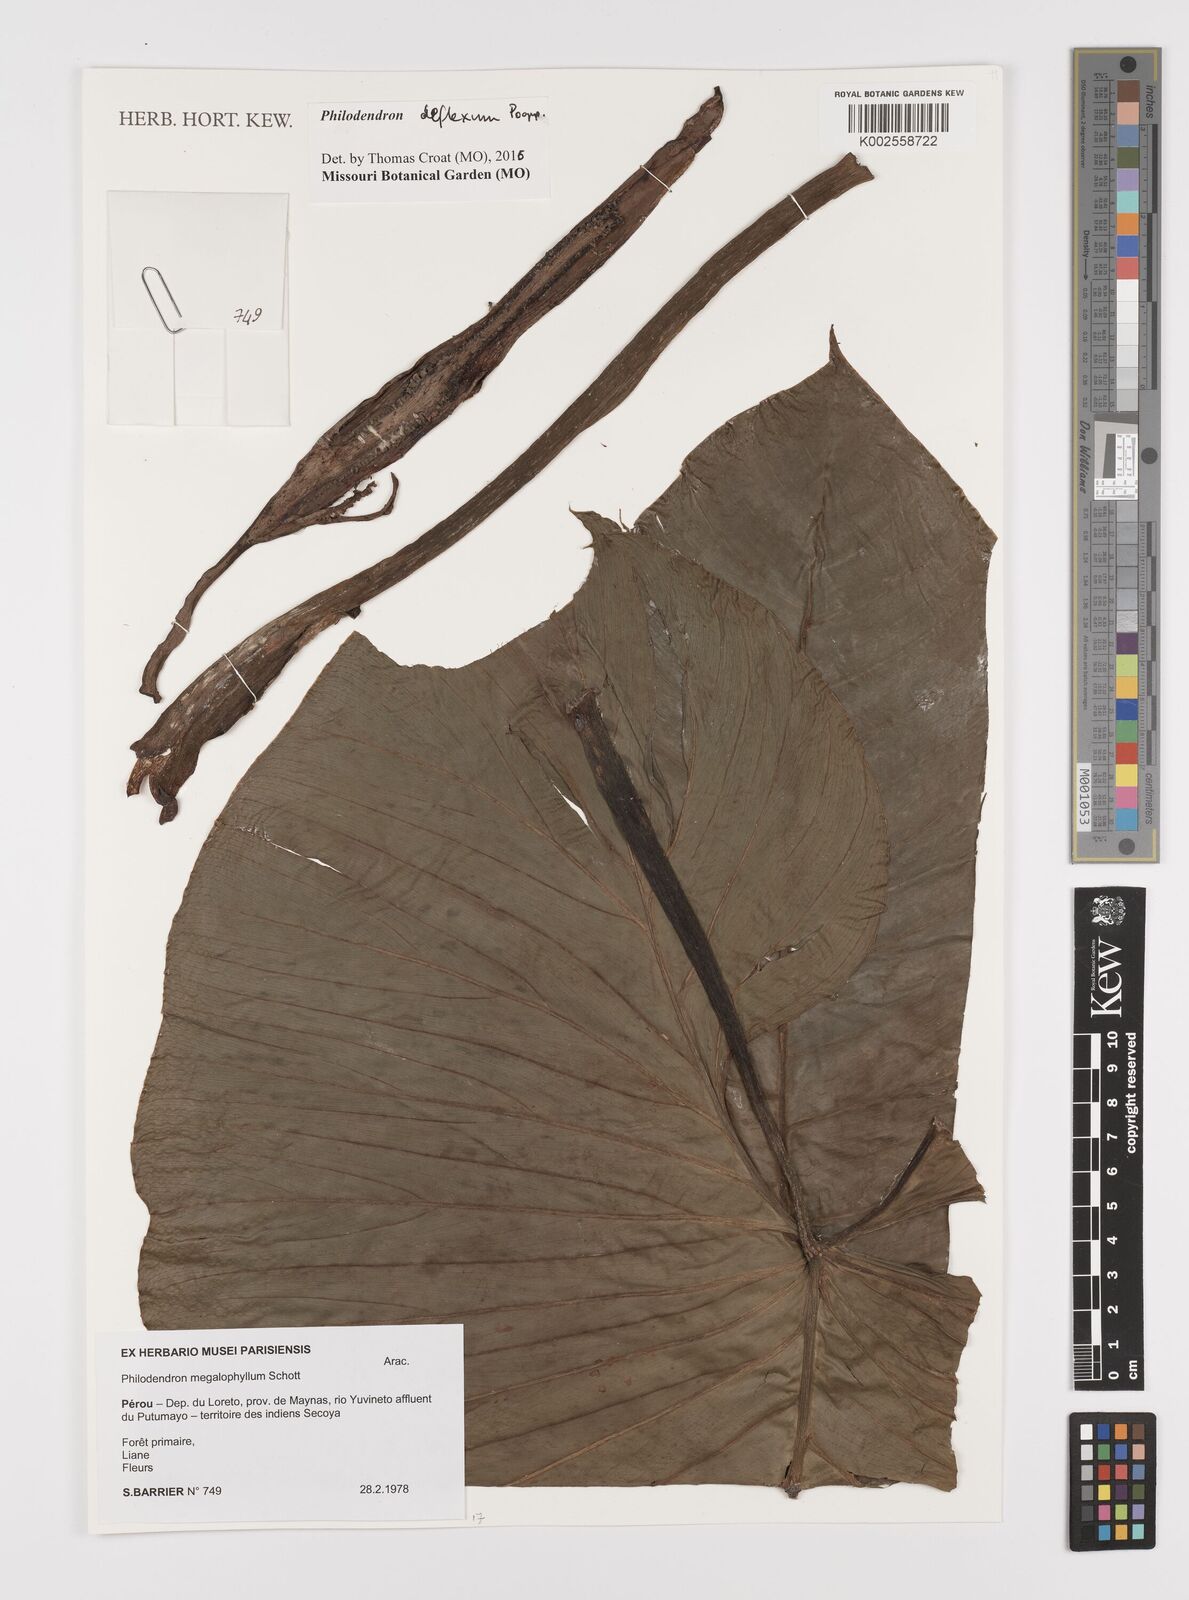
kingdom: Plantae
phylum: Tracheophyta
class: Liliopsida
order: Alismatales
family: Araceae
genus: Philodendron
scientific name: Philodendron deflexum
